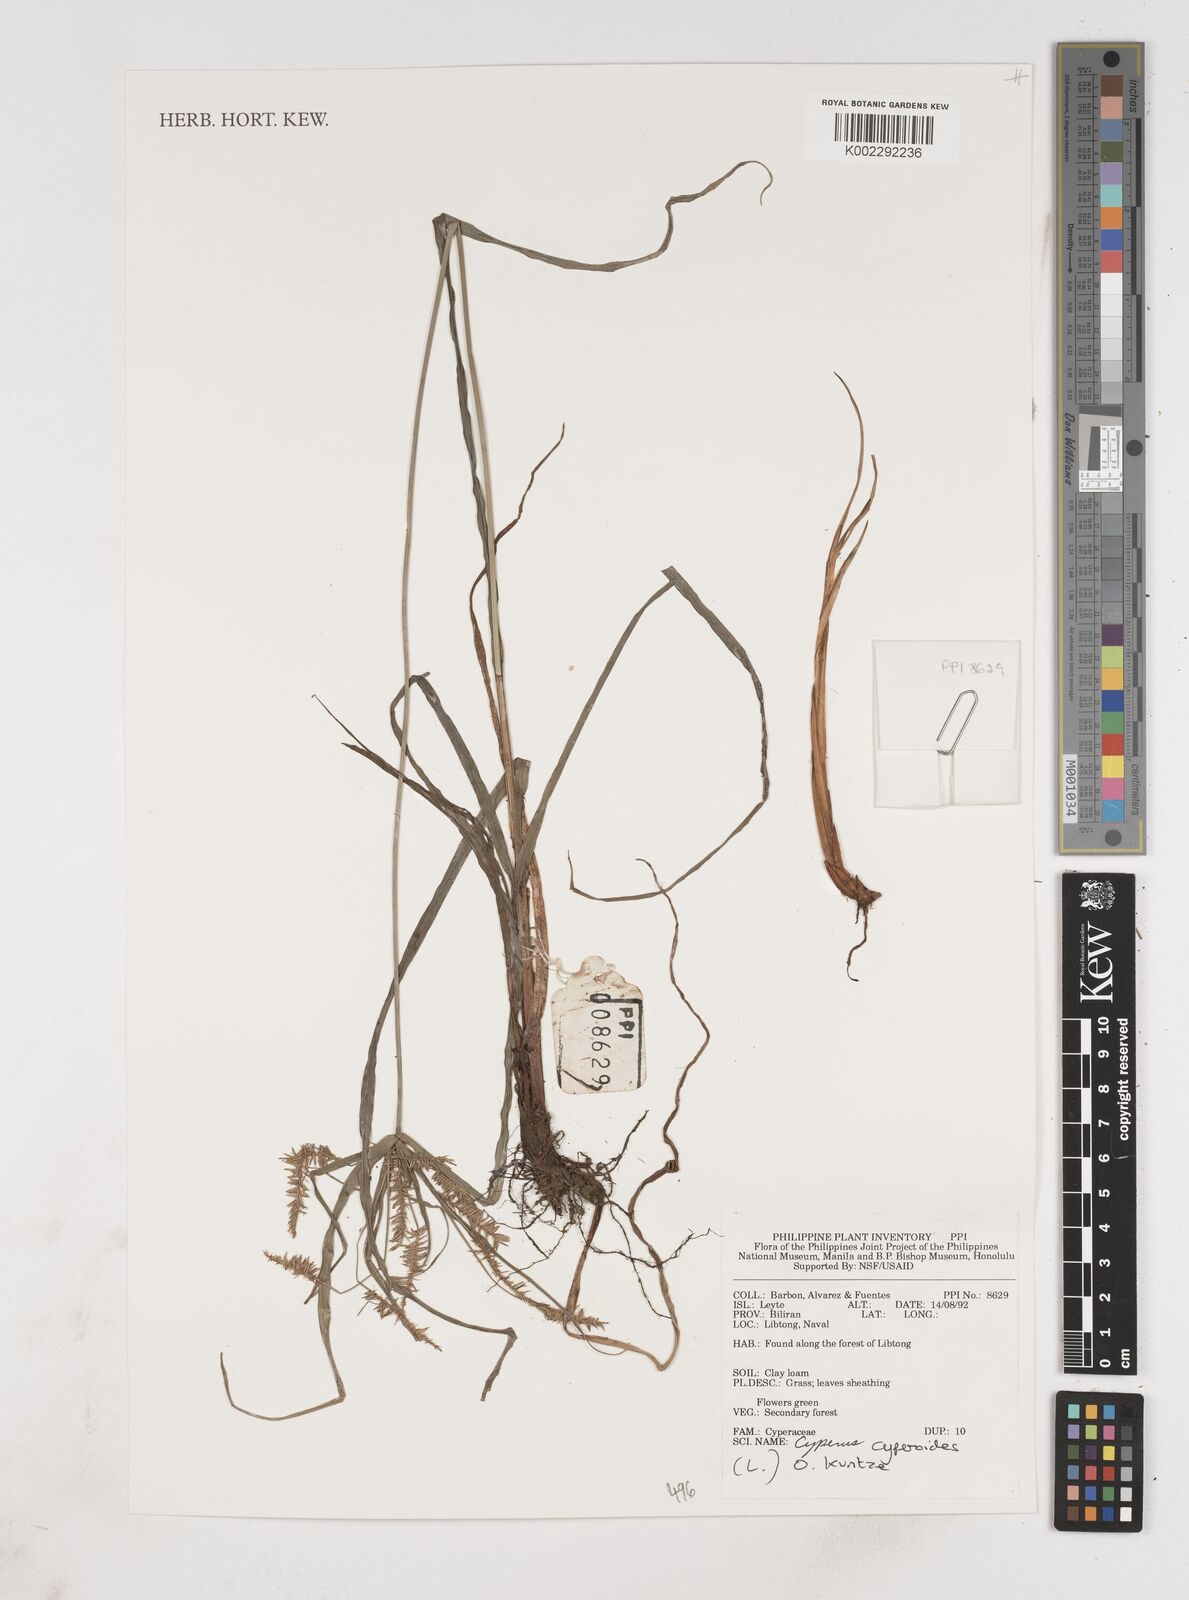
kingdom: Plantae
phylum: Tracheophyta
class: Liliopsida
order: Poales
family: Cyperaceae
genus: Cyperus
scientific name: Cyperus cyperoides
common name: Pacific island flat sedge
